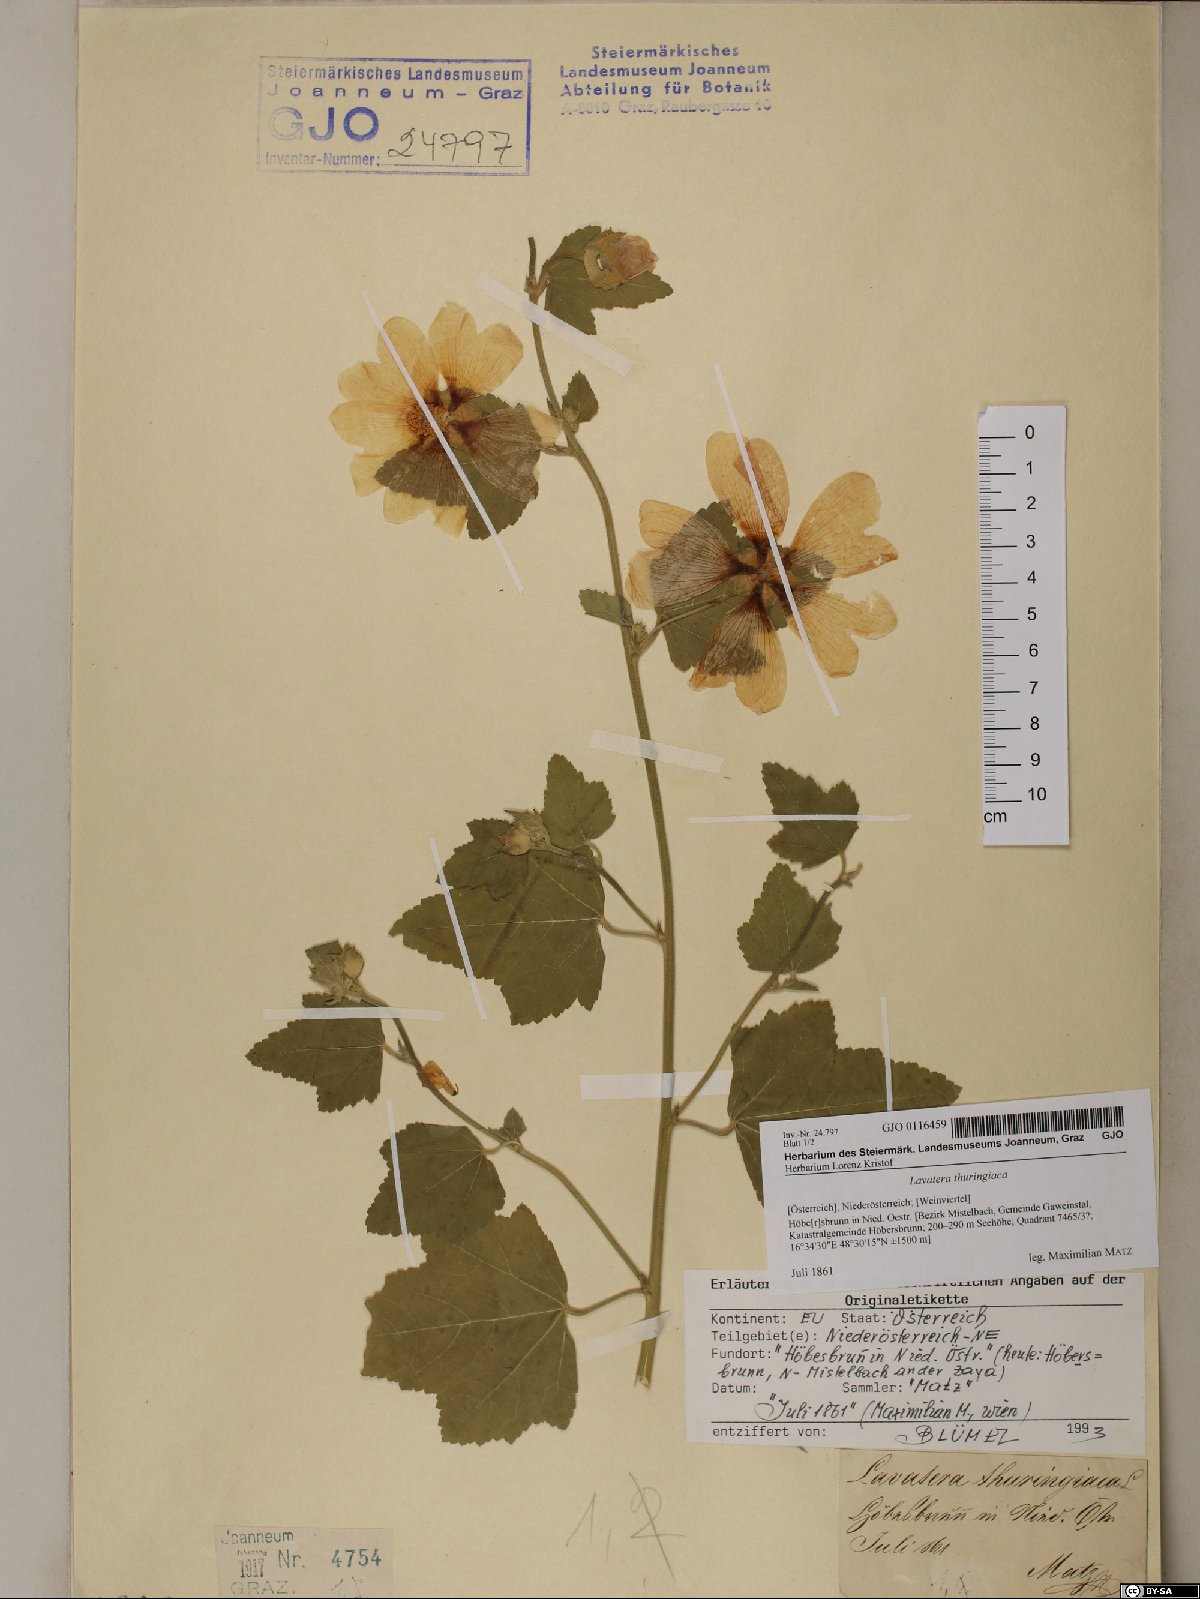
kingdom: Plantae
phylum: Tracheophyta
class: Magnoliopsida
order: Malvales
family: Malvaceae
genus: Malva
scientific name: Malva thuringiaca
